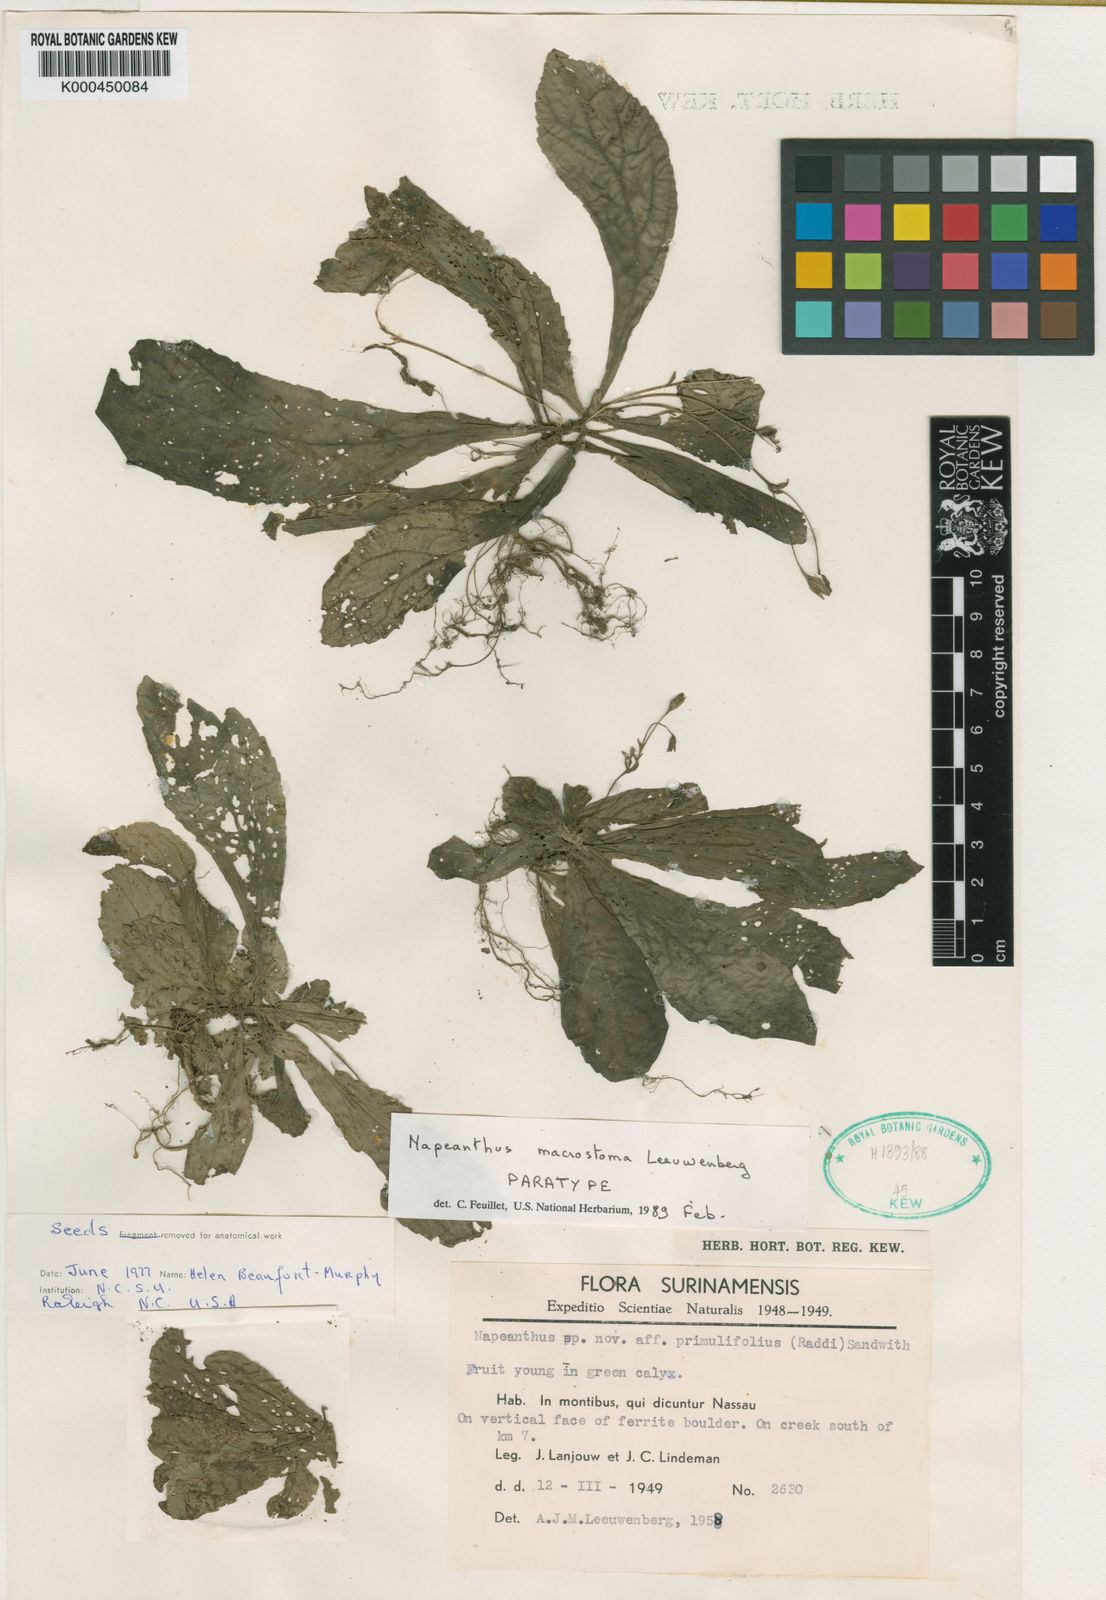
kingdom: Plantae
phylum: Tracheophyta
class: Magnoliopsida
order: Lamiales
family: Gesneriaceae
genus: Napeanthus
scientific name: Napeanthus macrostoma
